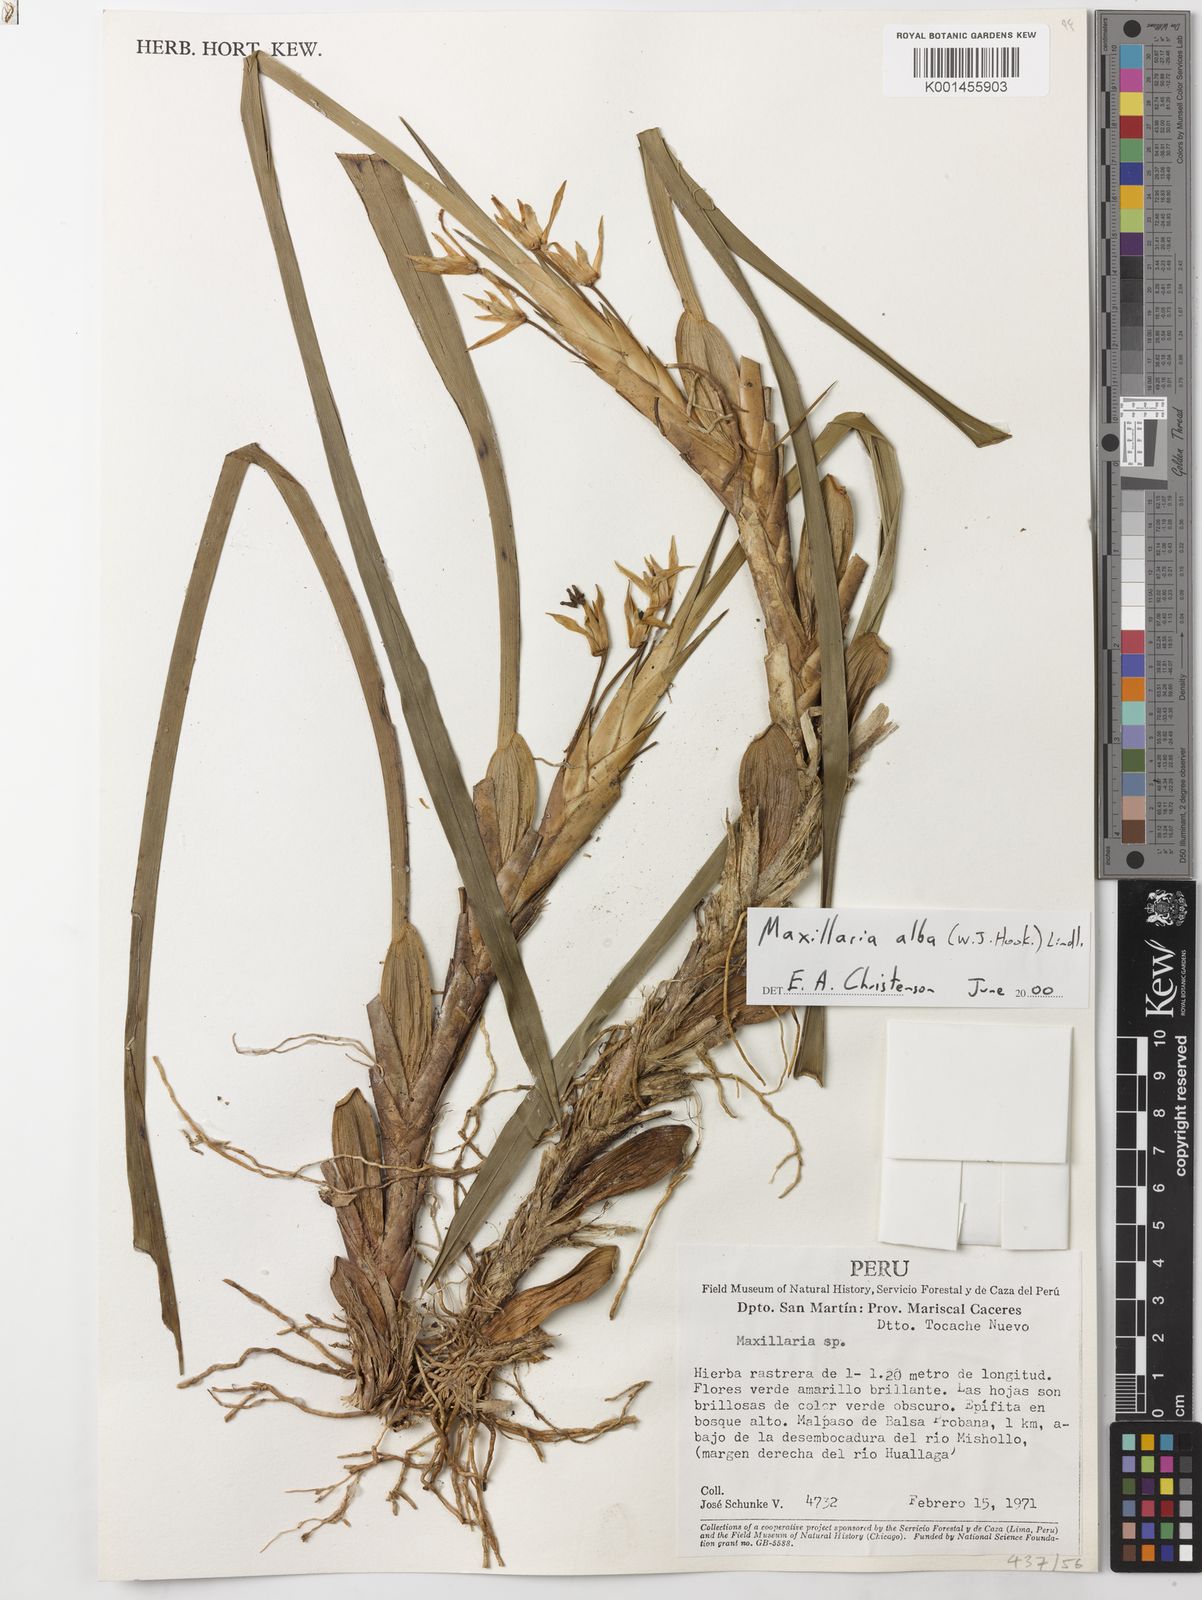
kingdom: Plantae
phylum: Tracheophyta
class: Liliopsida
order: Asparagales
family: Orchidaceae
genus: Maxillaria
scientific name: Maxillaria alba
